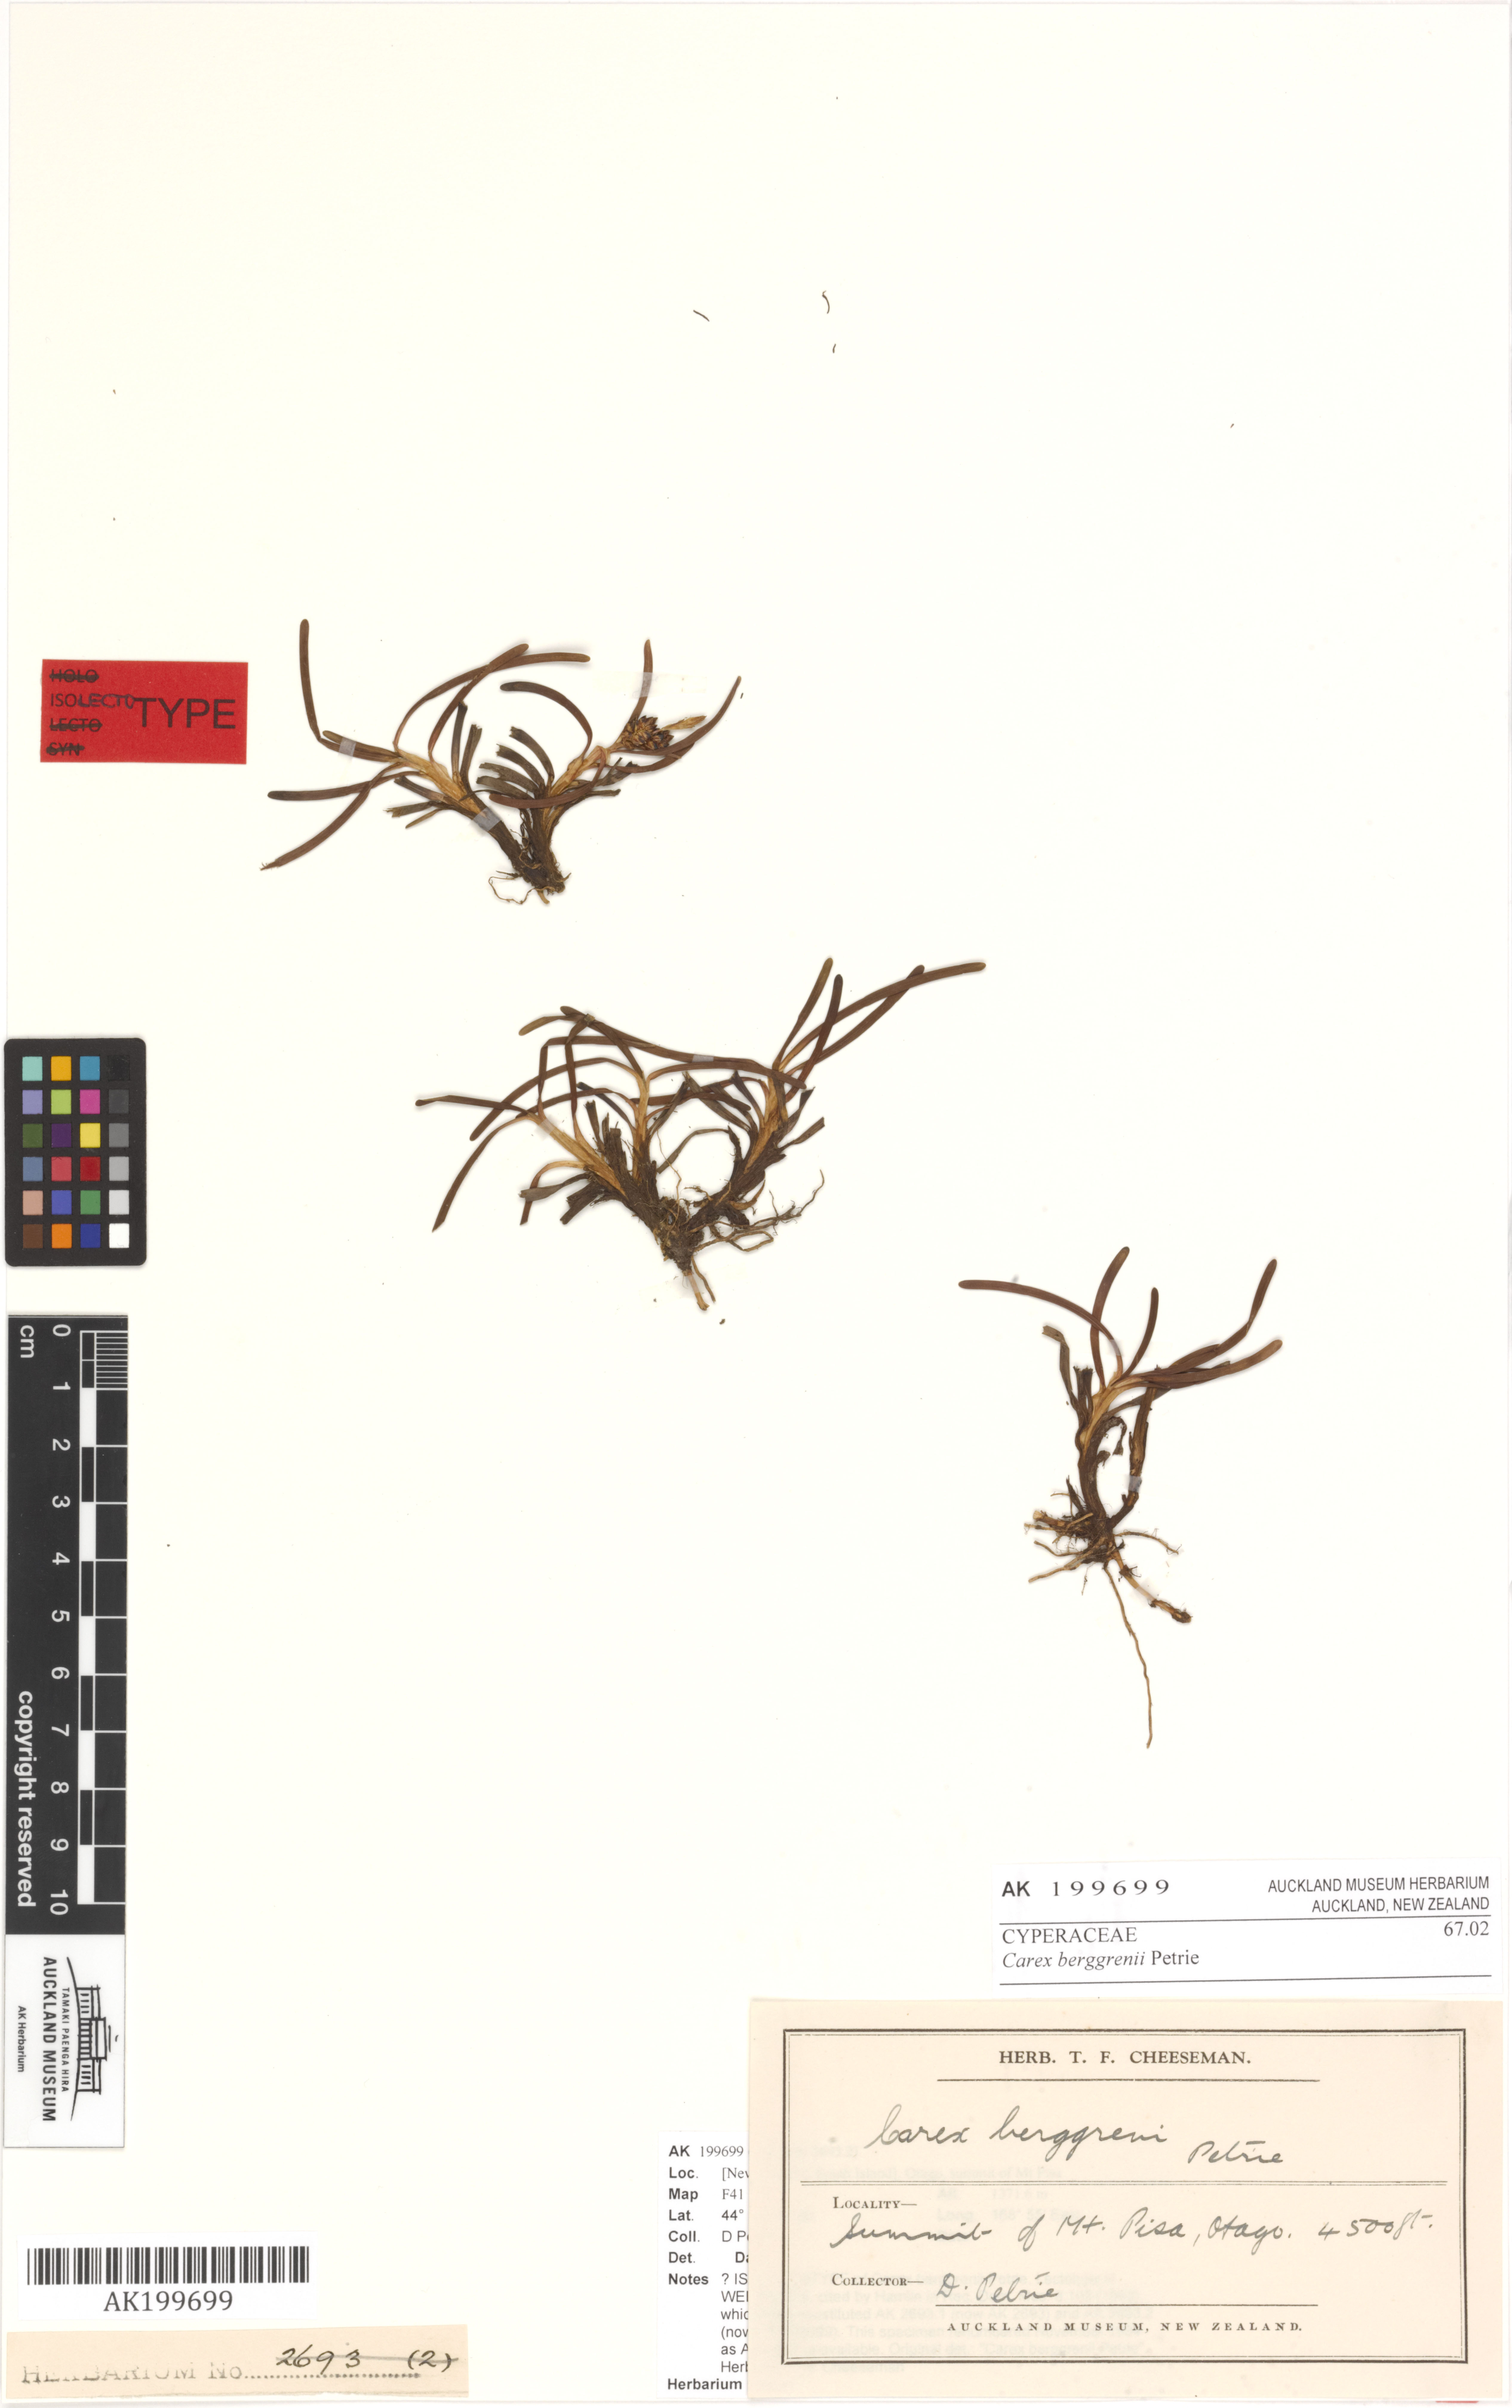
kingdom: Plantae
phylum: Tracheophyta
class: Liliopsida
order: Poales
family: Cyperaceae
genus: Carex
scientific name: Carex talbotii
